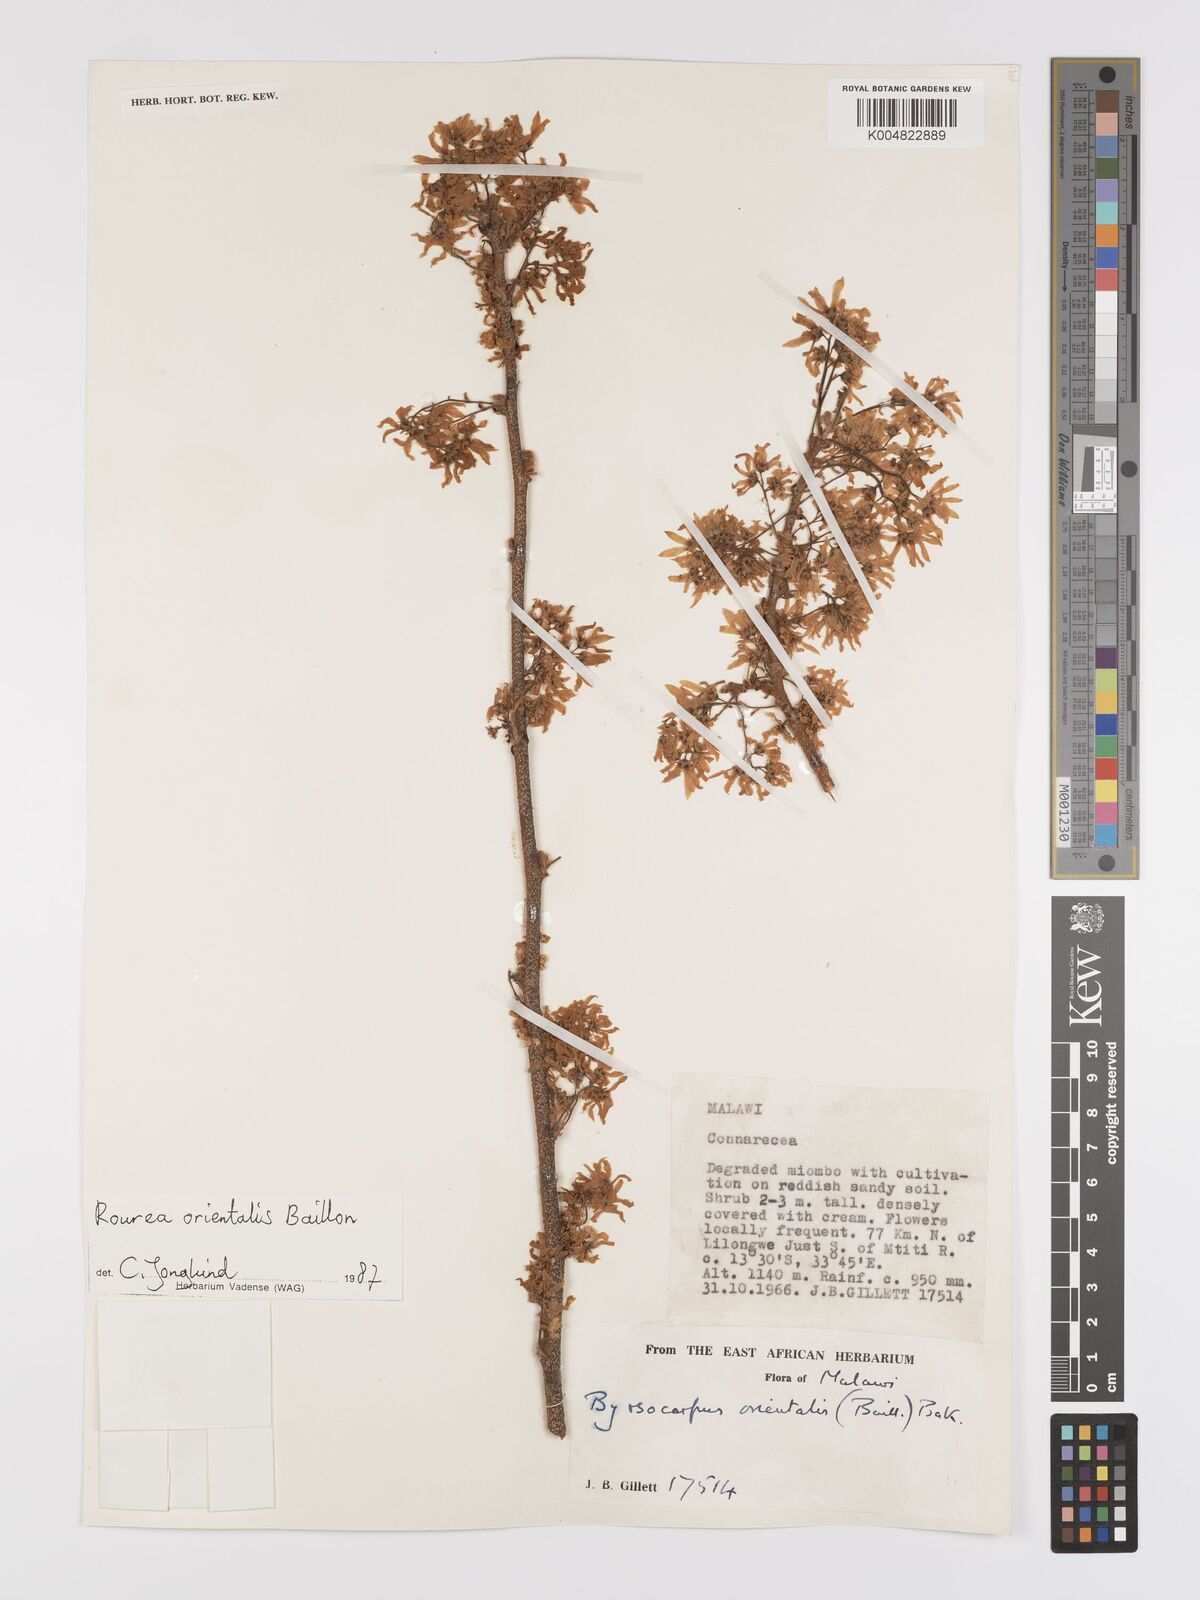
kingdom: Plantae
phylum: Tracheophyta
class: Magnoliopsida
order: Oxalidales
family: Connaraceae
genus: Rourea
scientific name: Rourea orientalis
